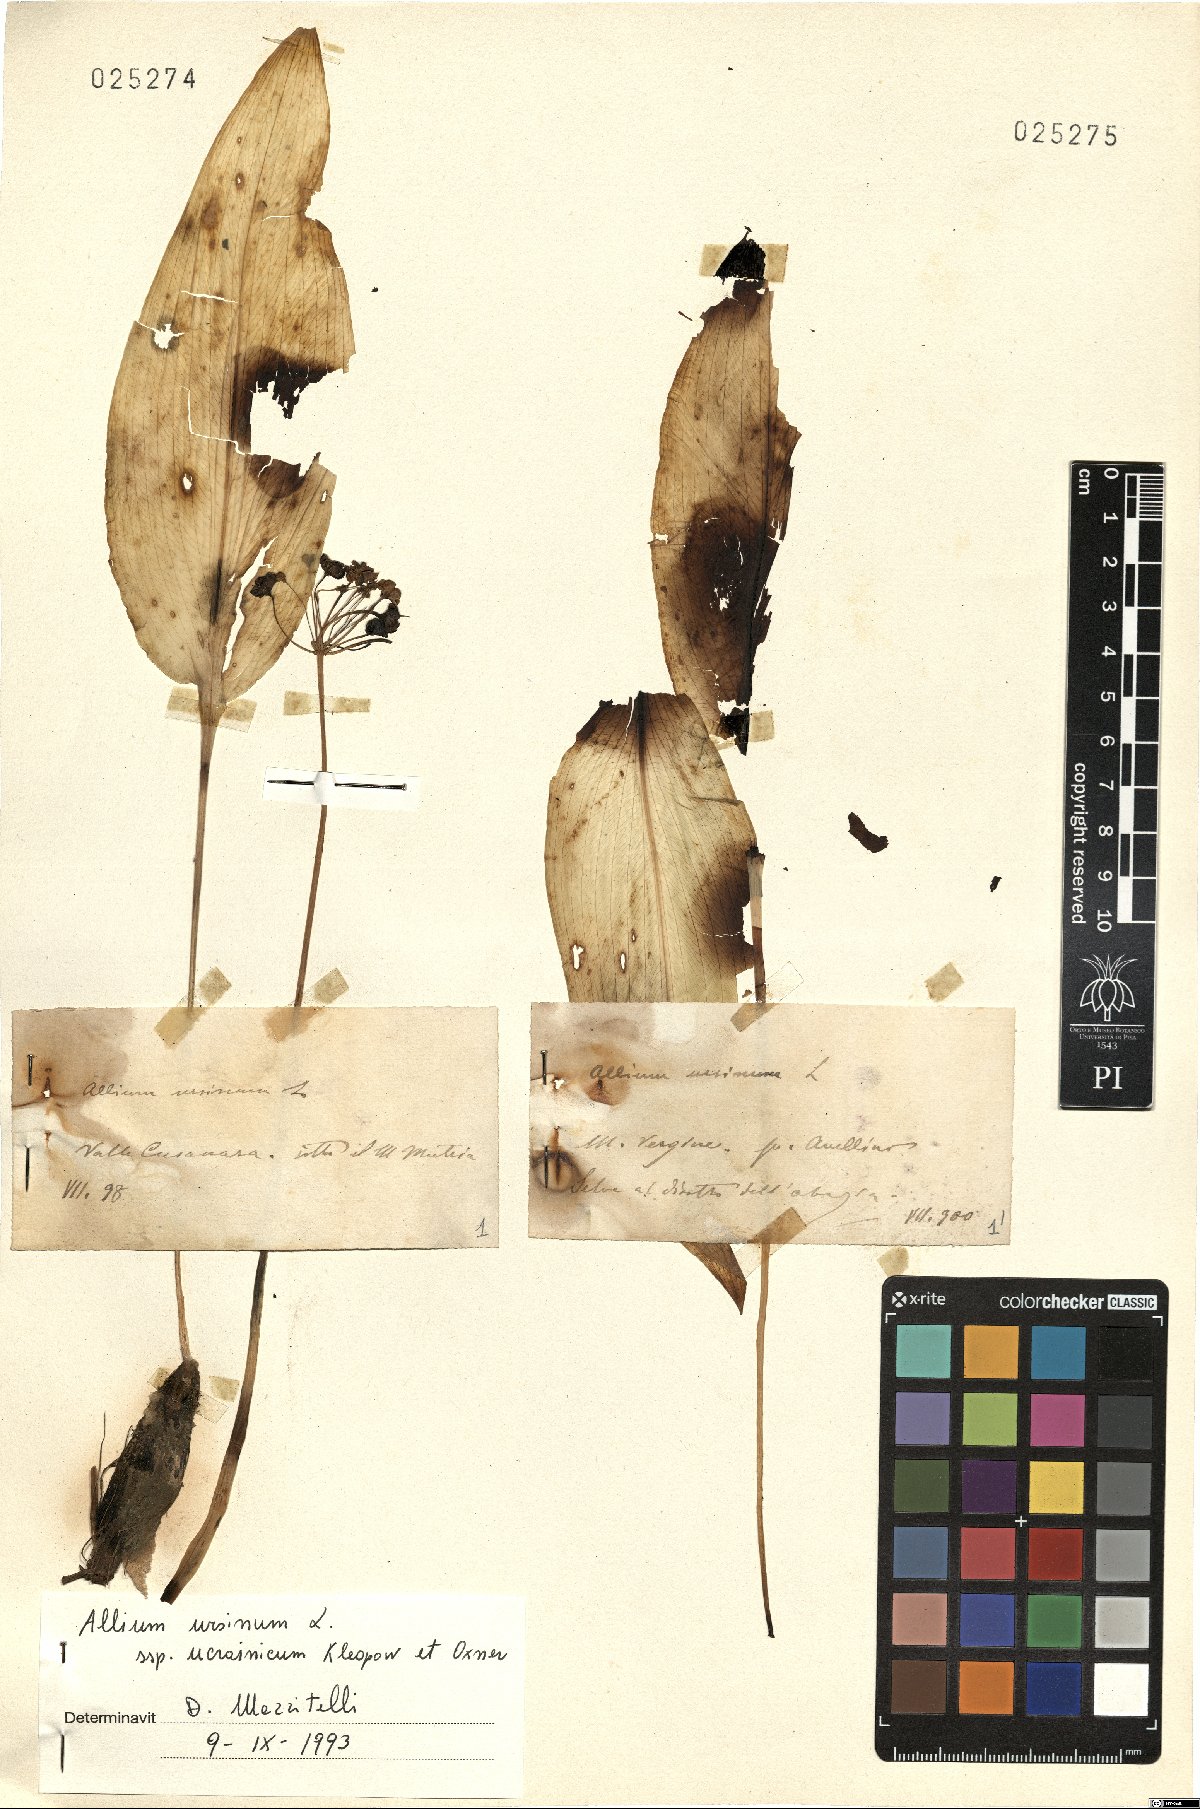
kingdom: Plantae
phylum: Tracheophyta
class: Liliopsida
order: Asparagales
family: Amaryllidaceae
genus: Allium
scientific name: Allium ursinum
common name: Ramsons
